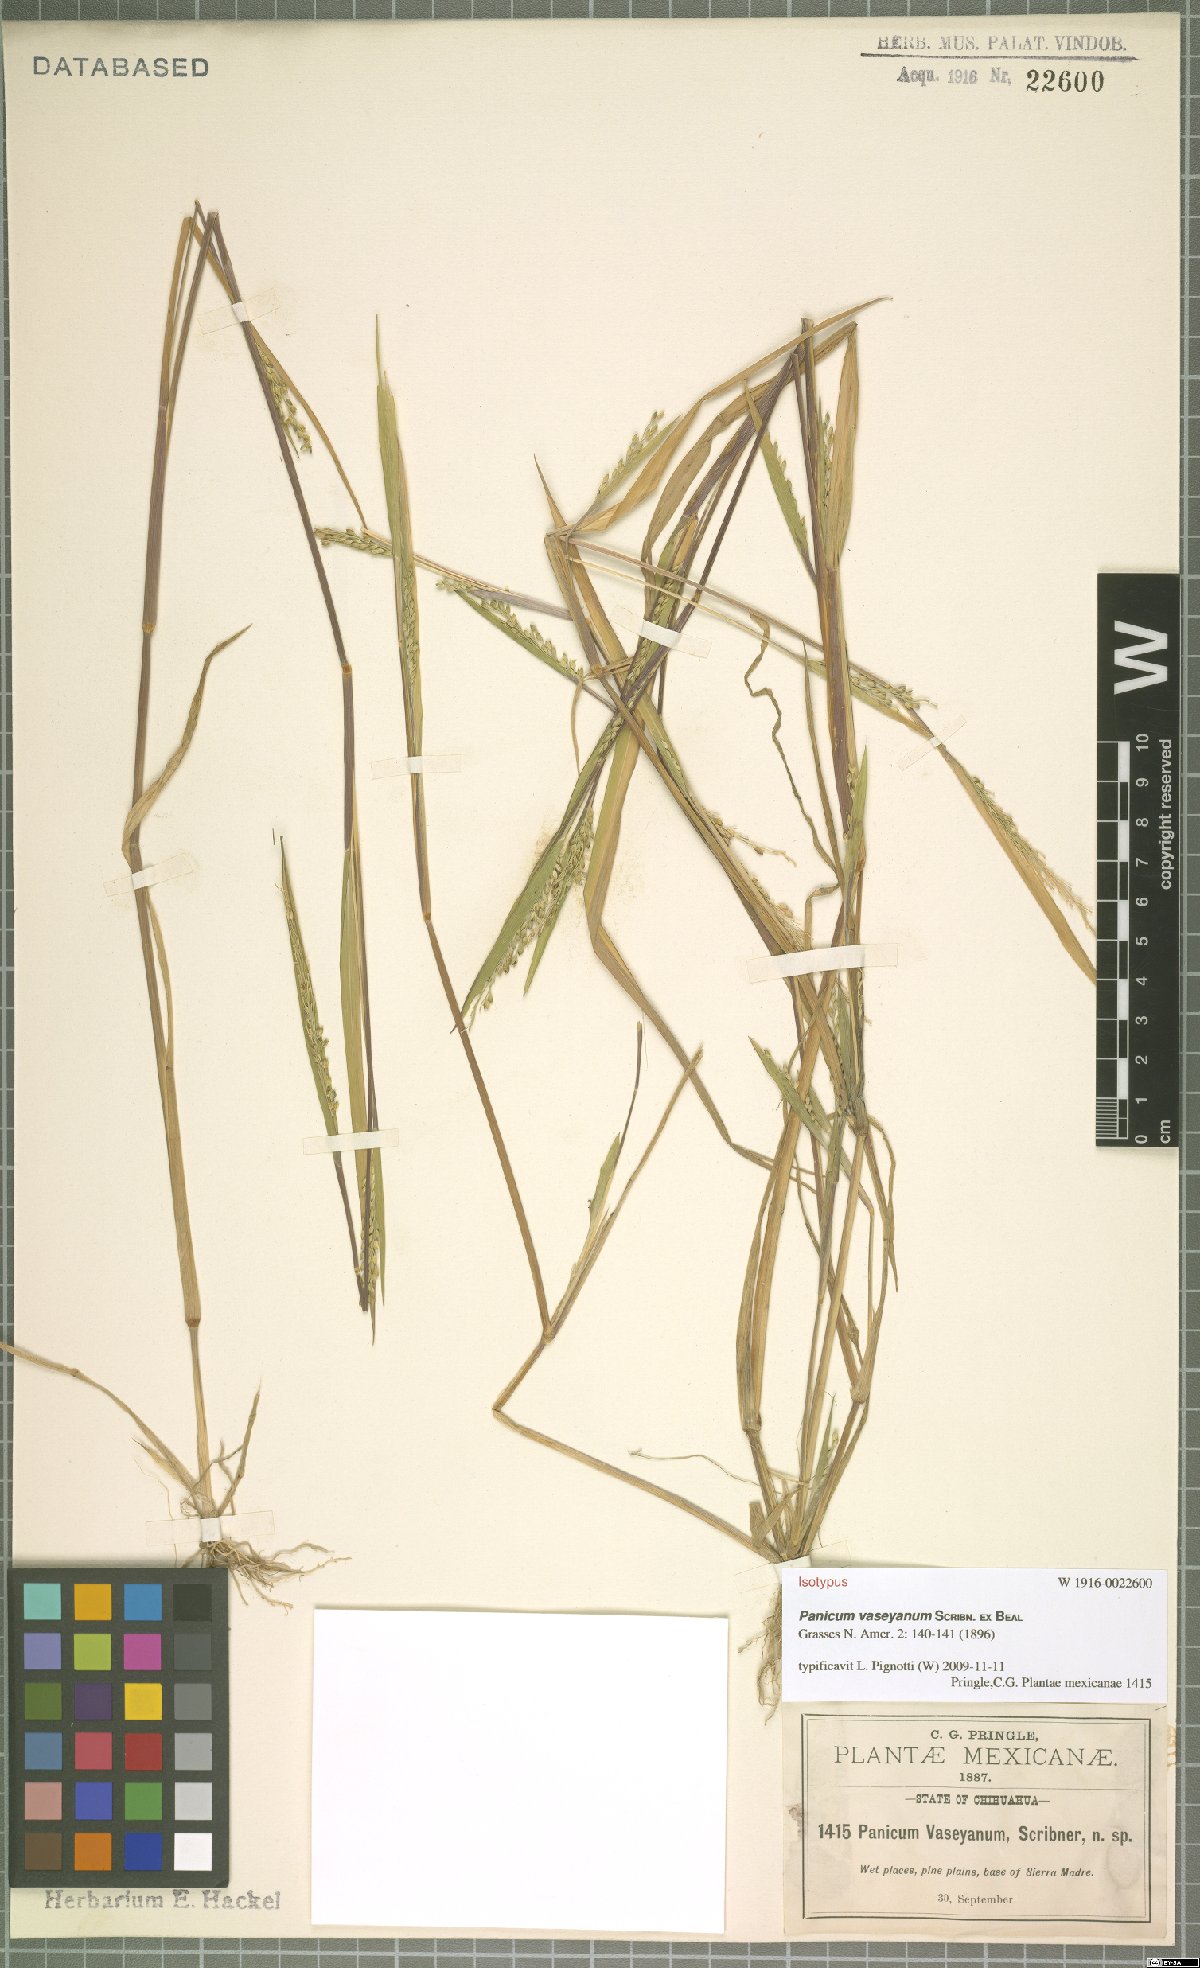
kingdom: Plantae
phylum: Tracheophyta
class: Liliopsida
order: Poales
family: Poaceae
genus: Panicum
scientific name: Panicum vaseyanum
